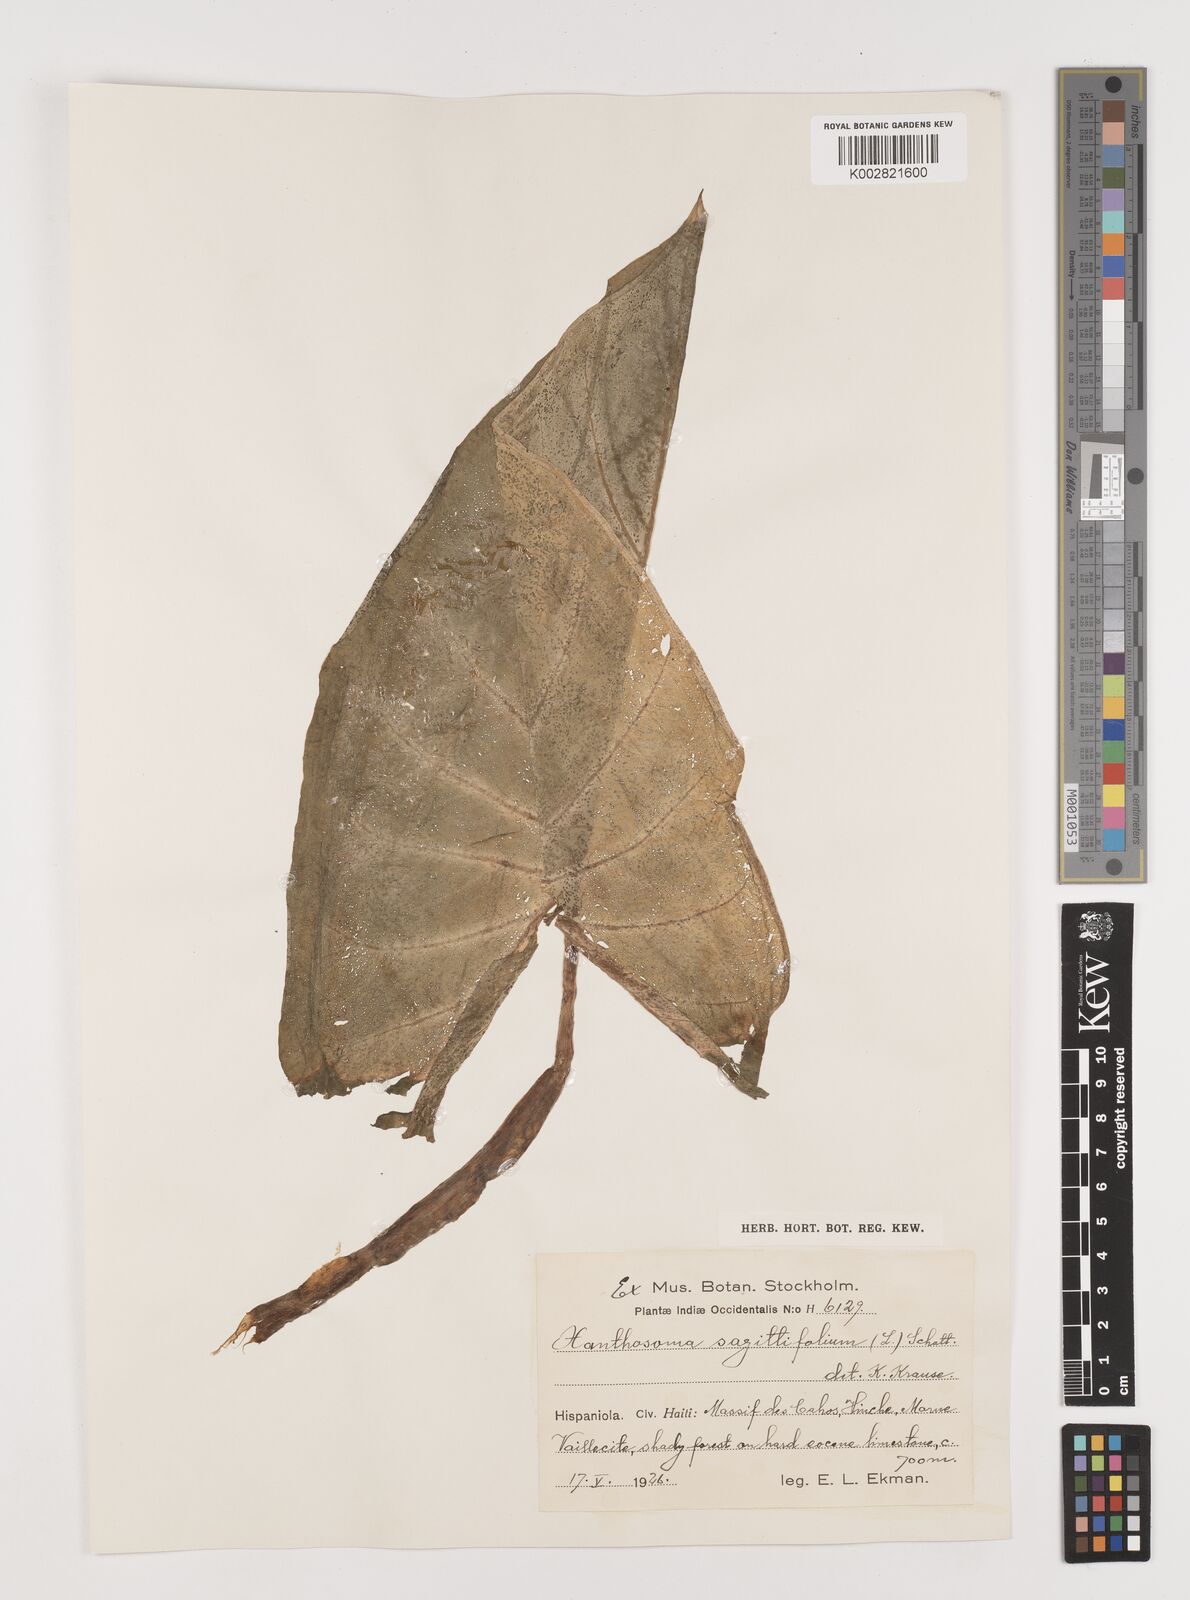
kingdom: Plantae
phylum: Tracheophyta
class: Liliopsida
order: Alismatales
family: Araceae
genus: Xanthosoma
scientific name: Xanthosoma sagittifolium
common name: Arrowleaf elephant's ear
